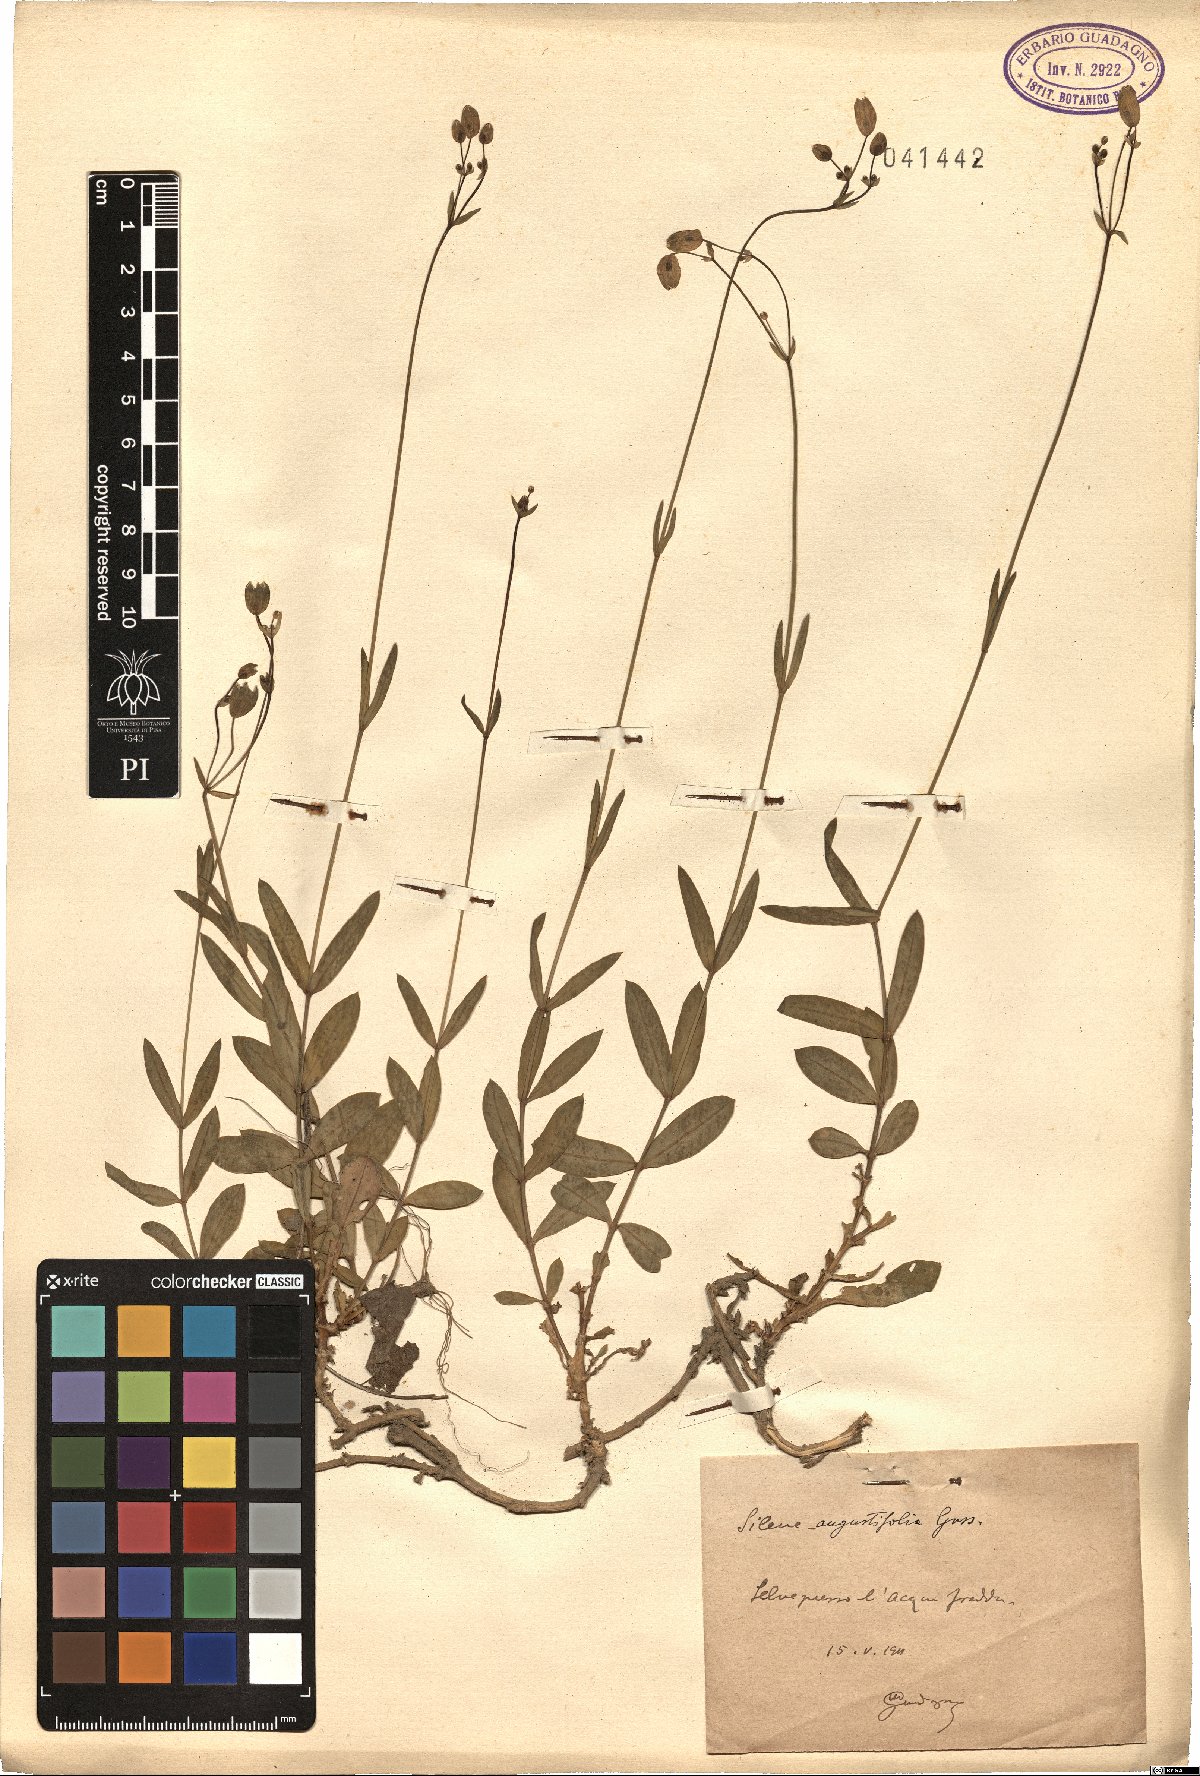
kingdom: Plantae
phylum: Tracheophyta
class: Magnoliopsida
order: Caryophyllales
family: Caryophyllaceae
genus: Silene
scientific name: Silene vulgaris
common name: Bladder campion
